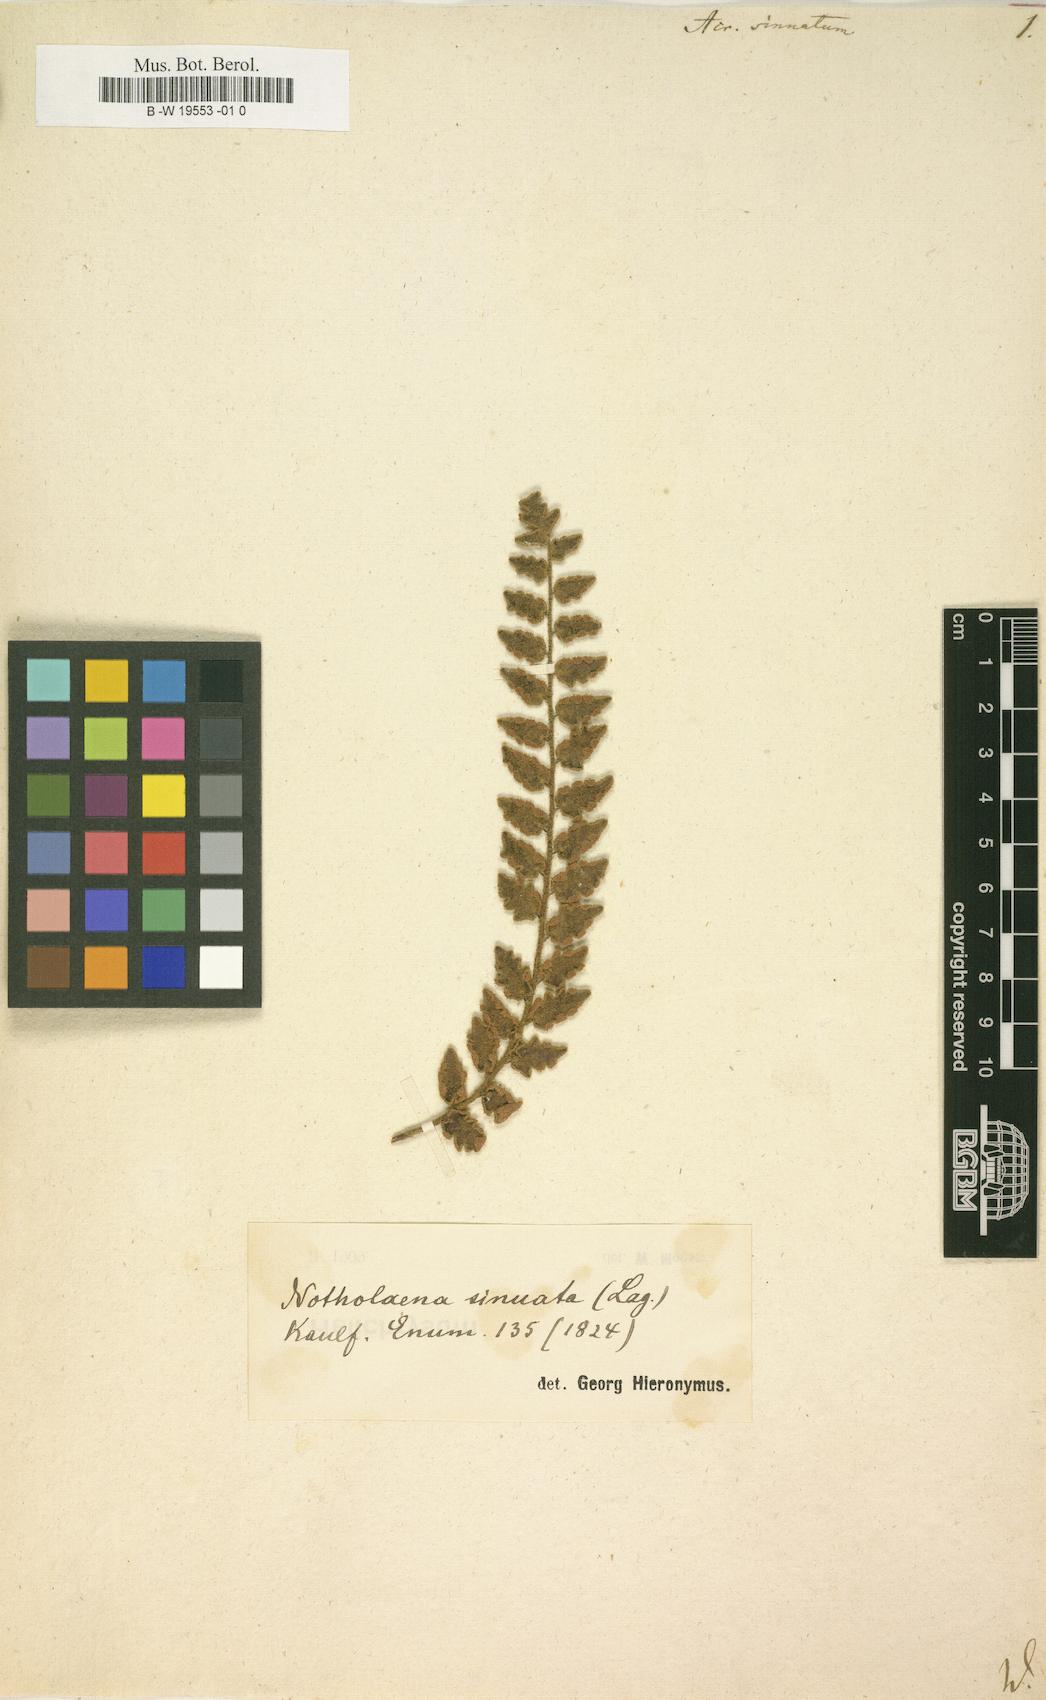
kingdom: Plantae
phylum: Tracheophyta
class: Polypodiopsida
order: Polypodiales
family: Pteridaceae
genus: Astrolepis
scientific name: Astrolepis sinuata
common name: Wavy scaly cloakfern
